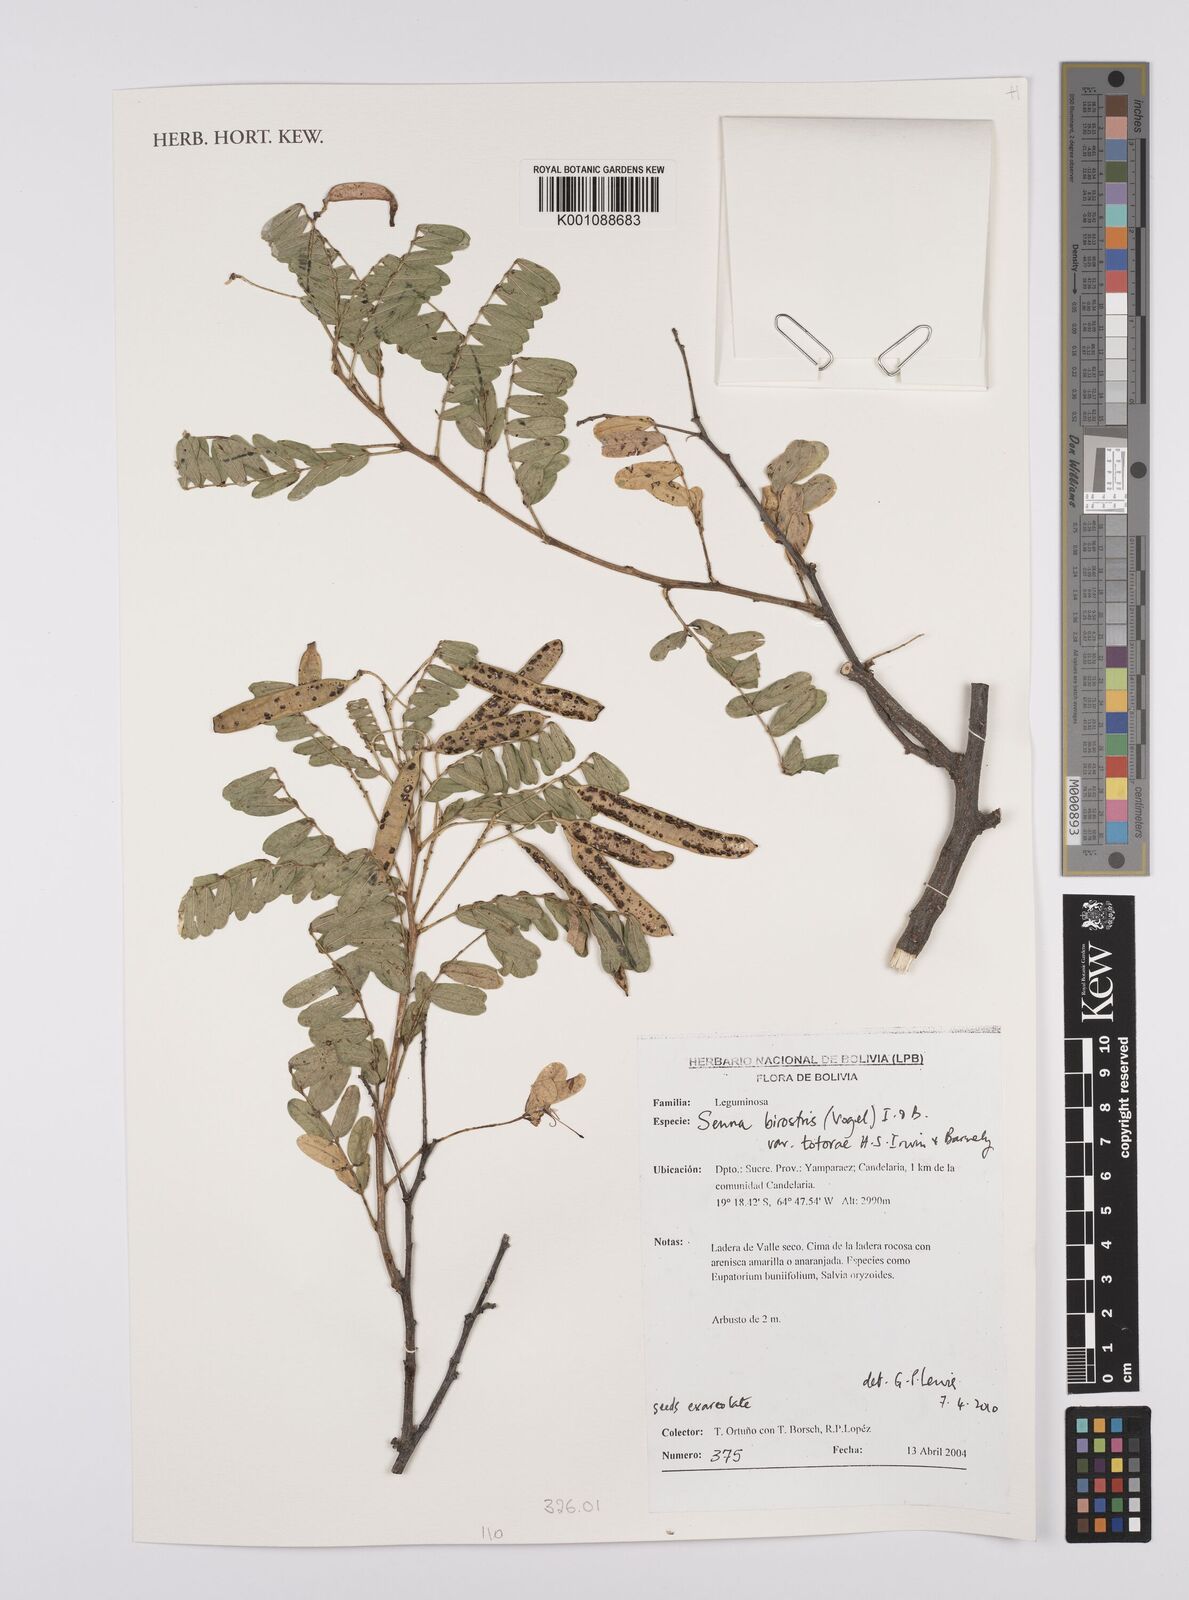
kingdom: Plantae
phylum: Tracheophyta
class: Magnoliopsida
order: Fabales
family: Fabaceae
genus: Senna
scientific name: Senna birostris
